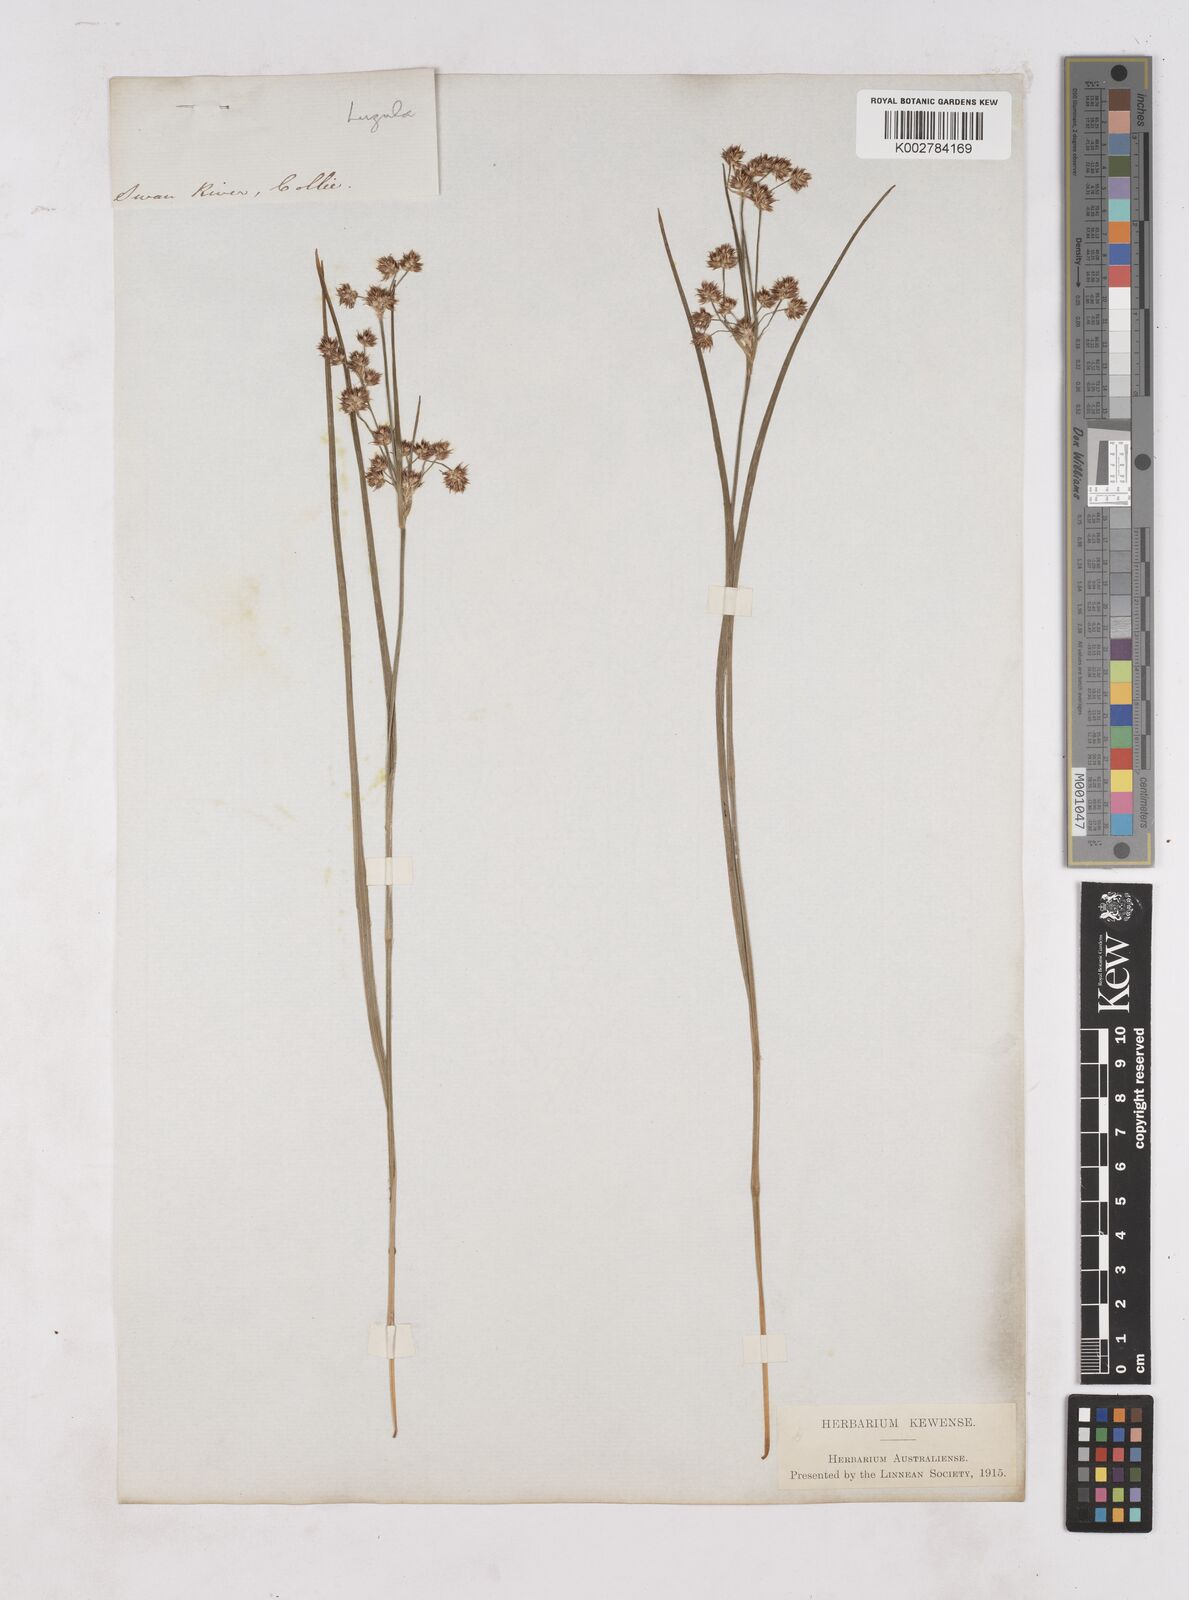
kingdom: Plantae
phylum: Tracheophyta
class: Liliopsida
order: Poales
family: Juncaceae
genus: Luzula
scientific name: Luzula campestris
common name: Field wood-rush
